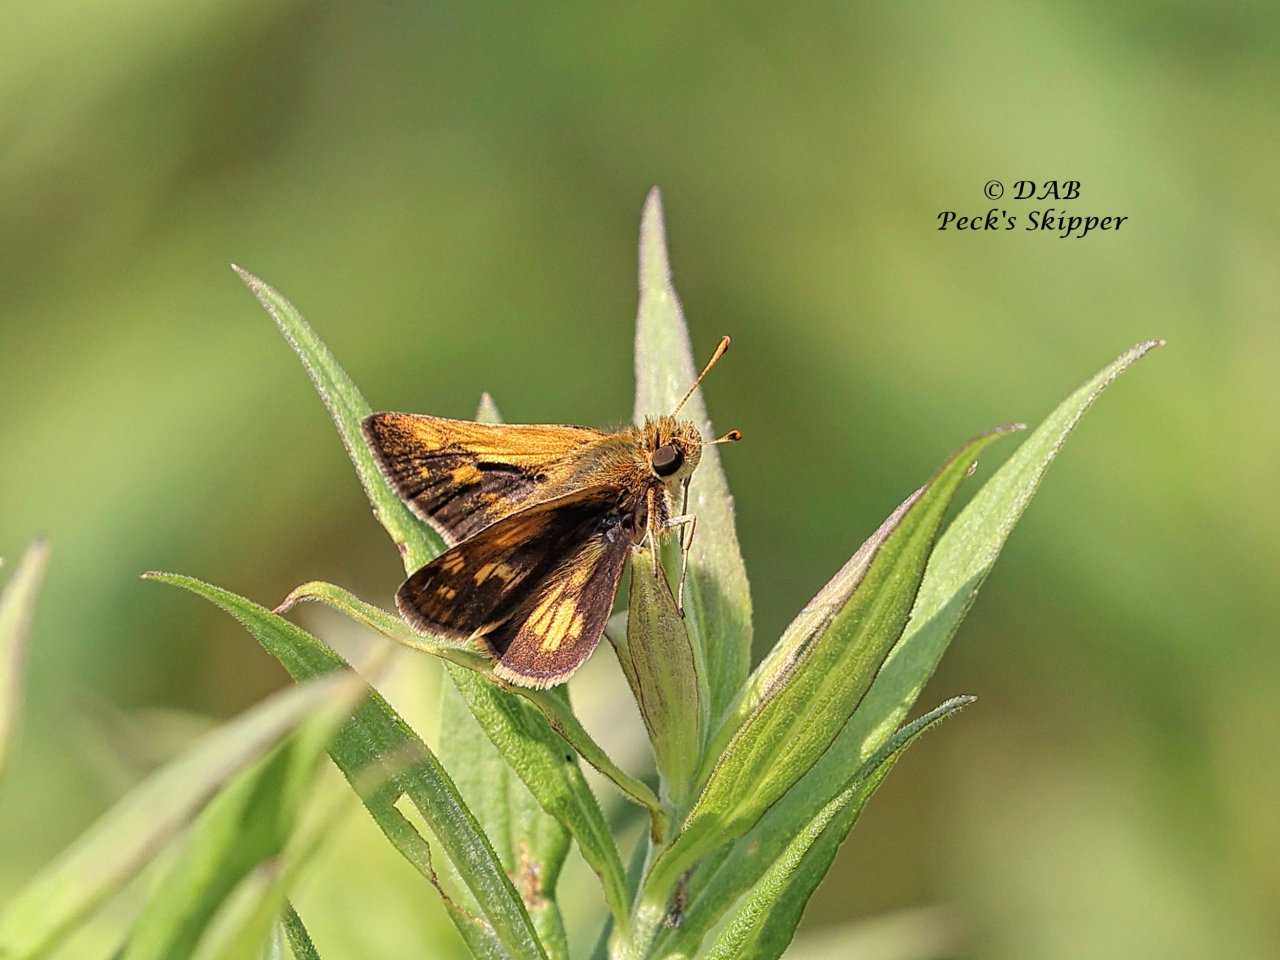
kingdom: Animalia
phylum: Arthropoda
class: Insecta
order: Lepidoptera
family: Hesperiidae
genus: Polites
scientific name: Polites coras
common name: Peck's Skipper
